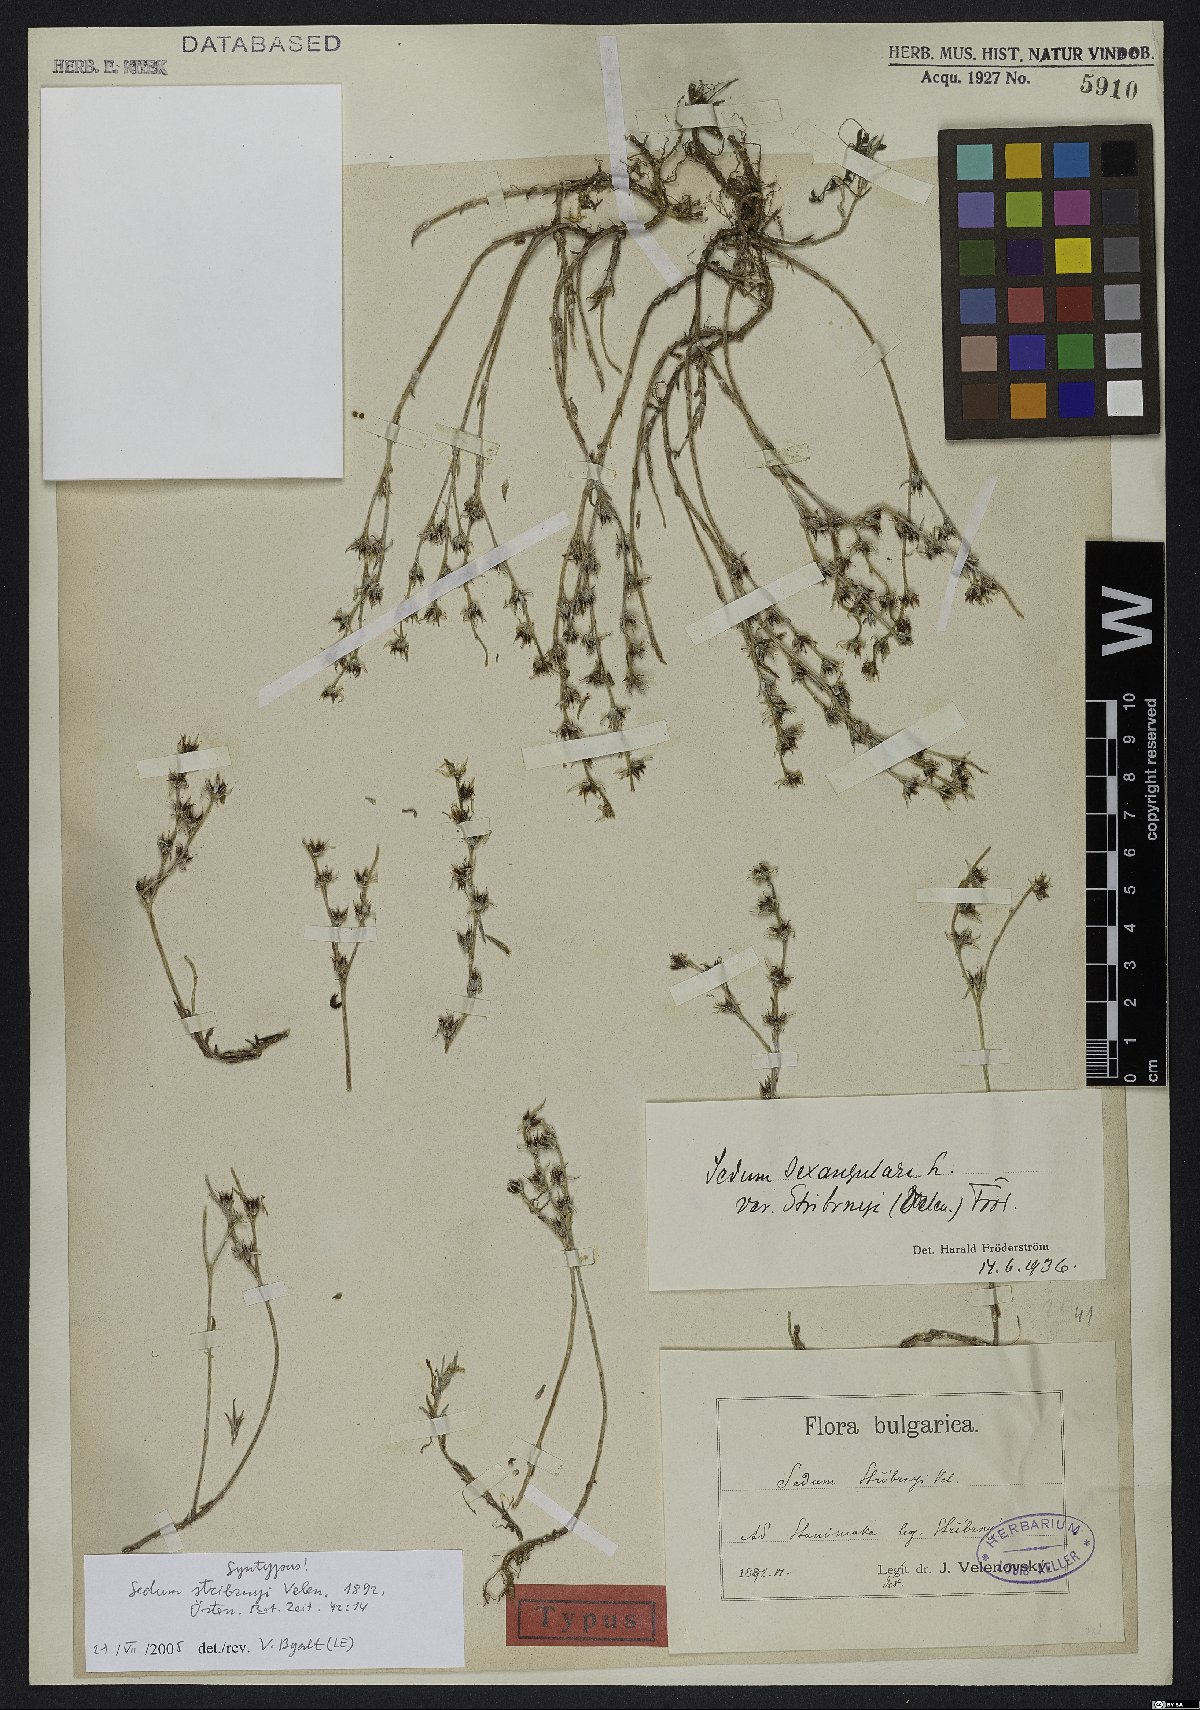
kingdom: Plantae
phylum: Tracheophyta
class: Magnoliopsida
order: Saxifragales
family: Crassulaceae
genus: Sedum
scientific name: Sedum urvillei
